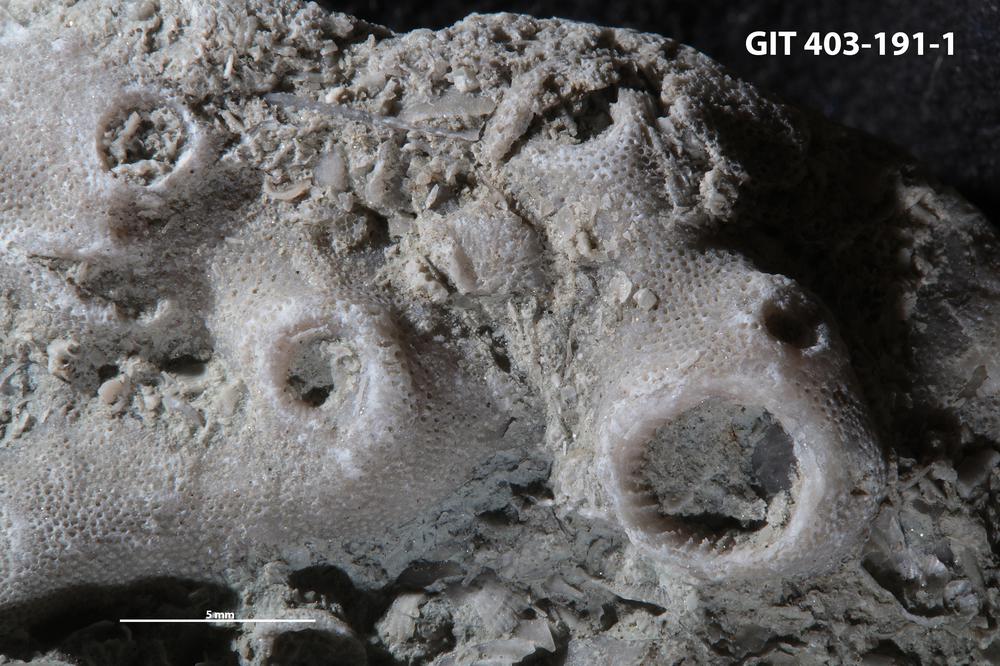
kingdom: Animalia
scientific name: Animalia
